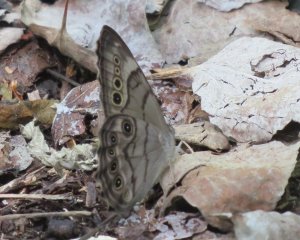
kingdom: Animalia
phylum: Arthropoda
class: Insecta
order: Lepidoptera
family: Nymphalidae
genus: Lethe
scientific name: Lethe anthedon
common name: Northern Pearly-Eye
